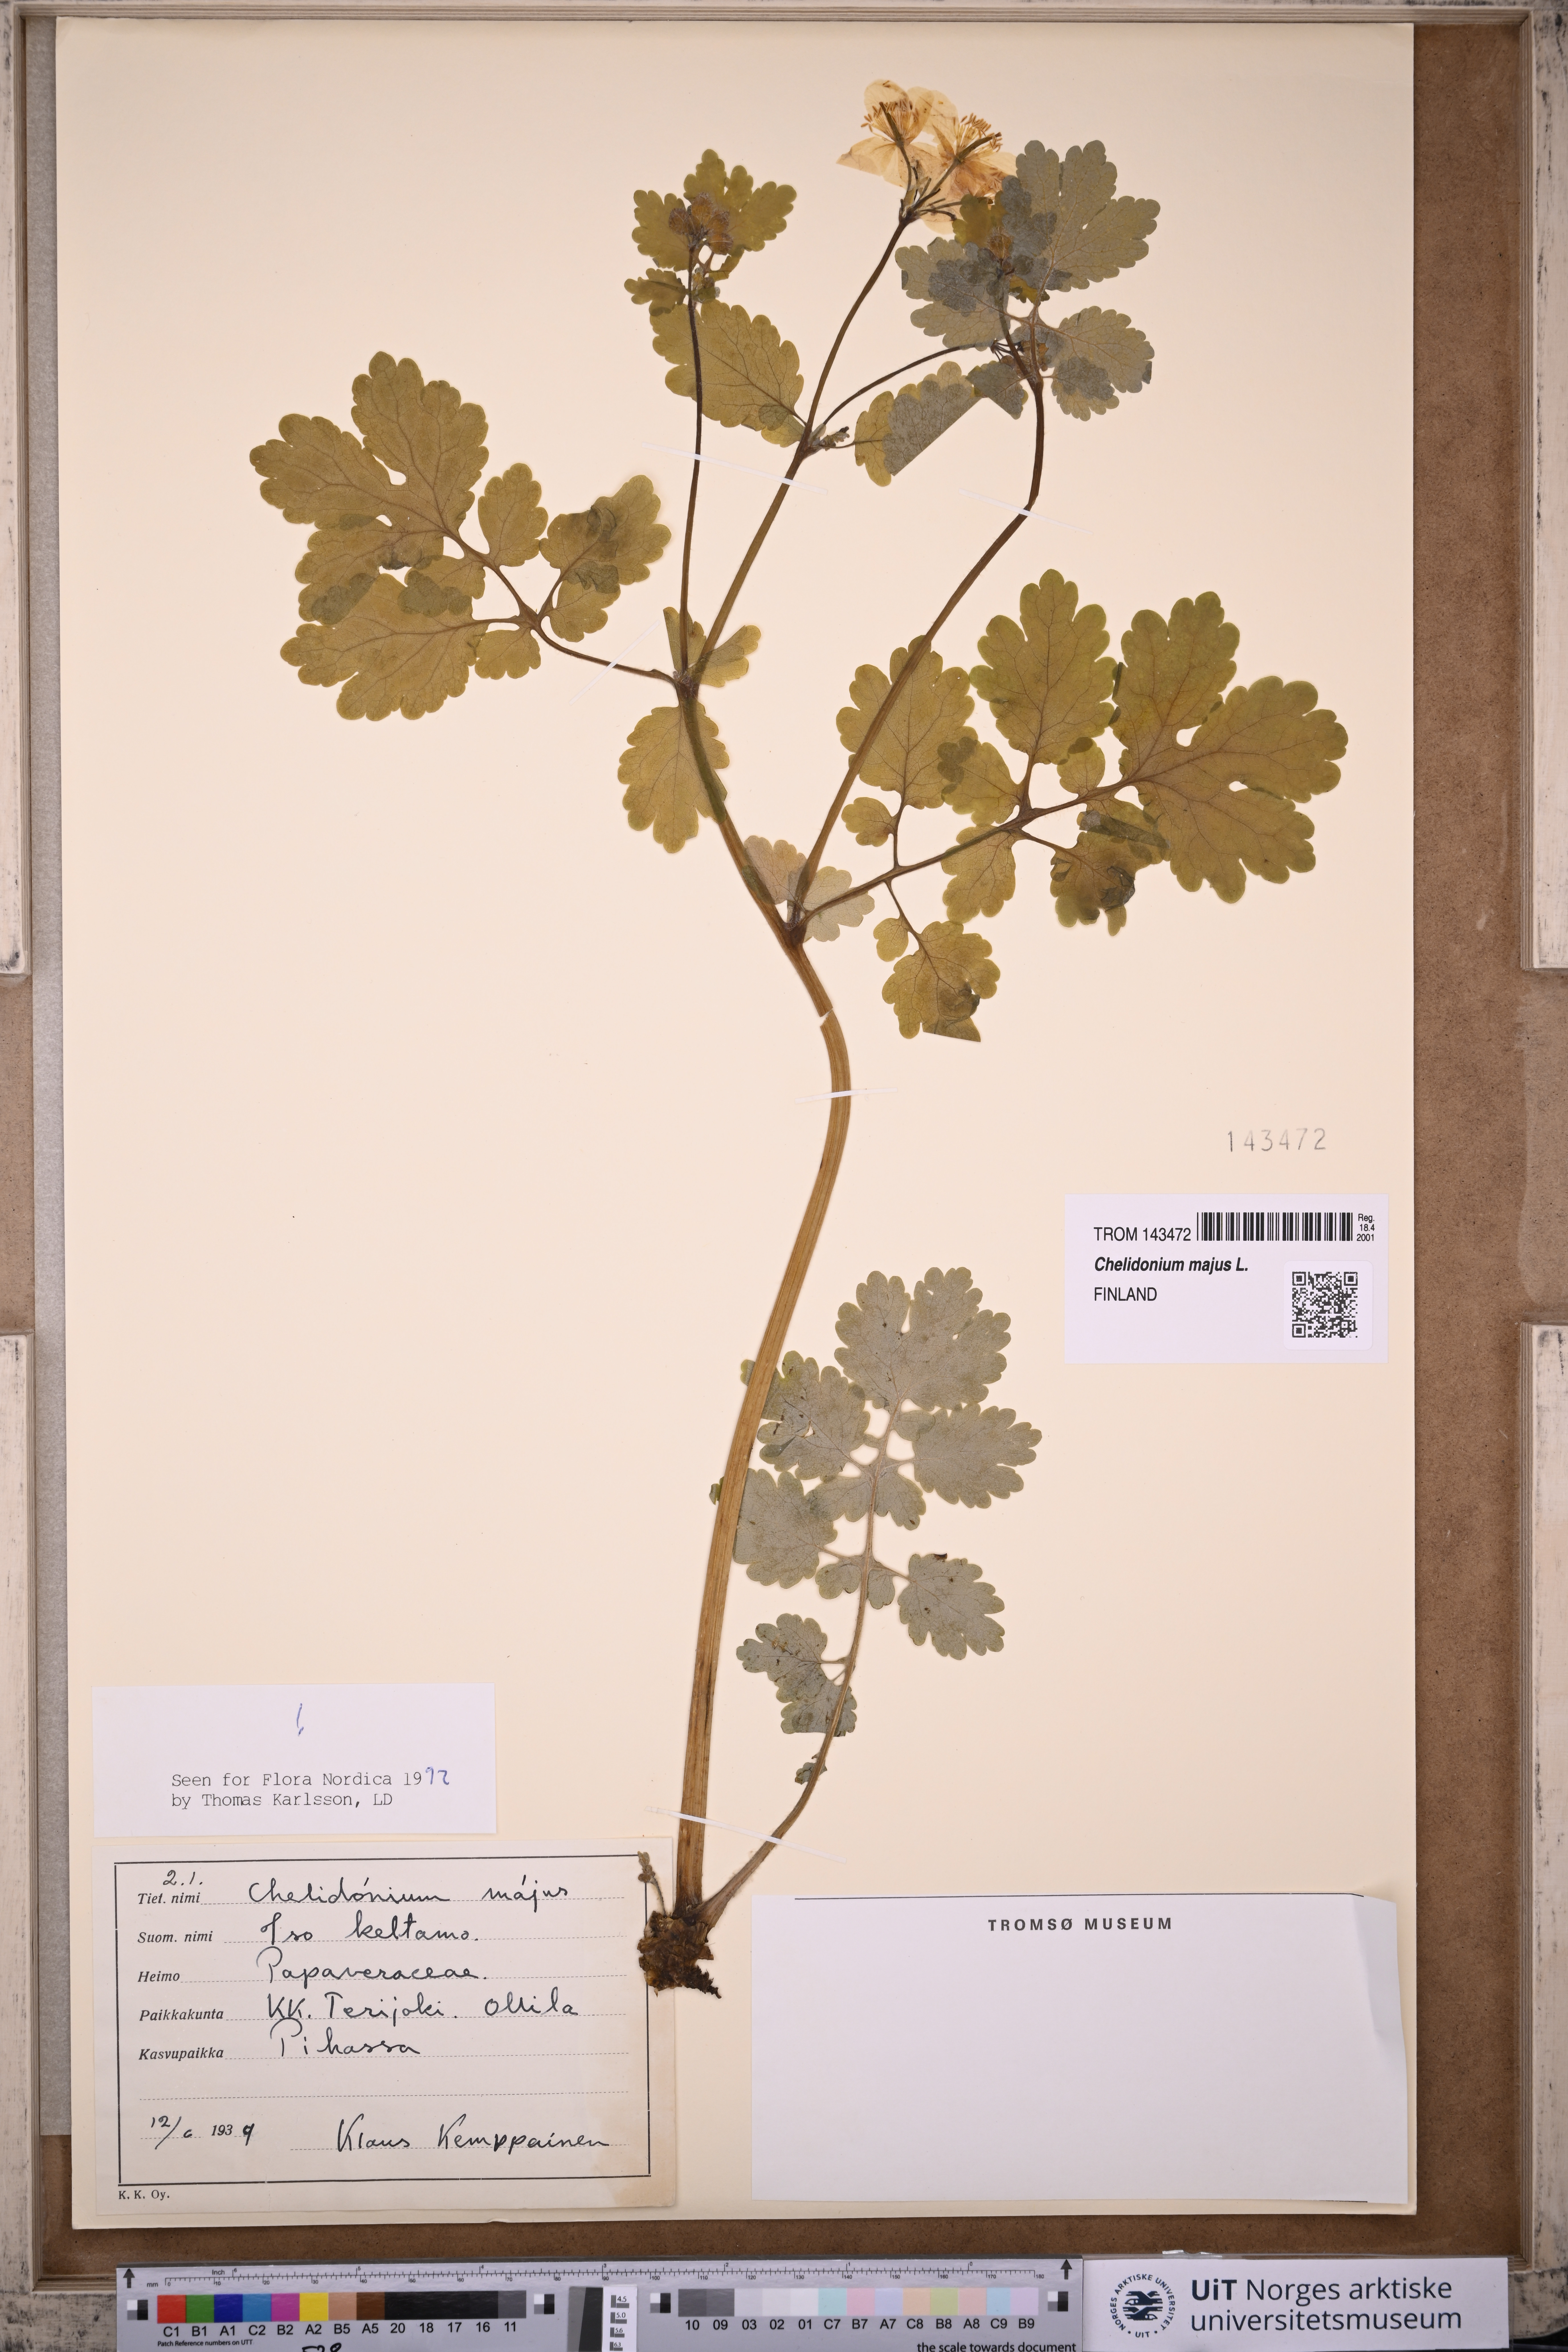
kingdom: Plantae
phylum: Tracheophyta
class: Magnoliopsida
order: Ranunculales
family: Papaveraceae
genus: Chelidonium
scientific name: Chelidonium majus
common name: Greater celandine
